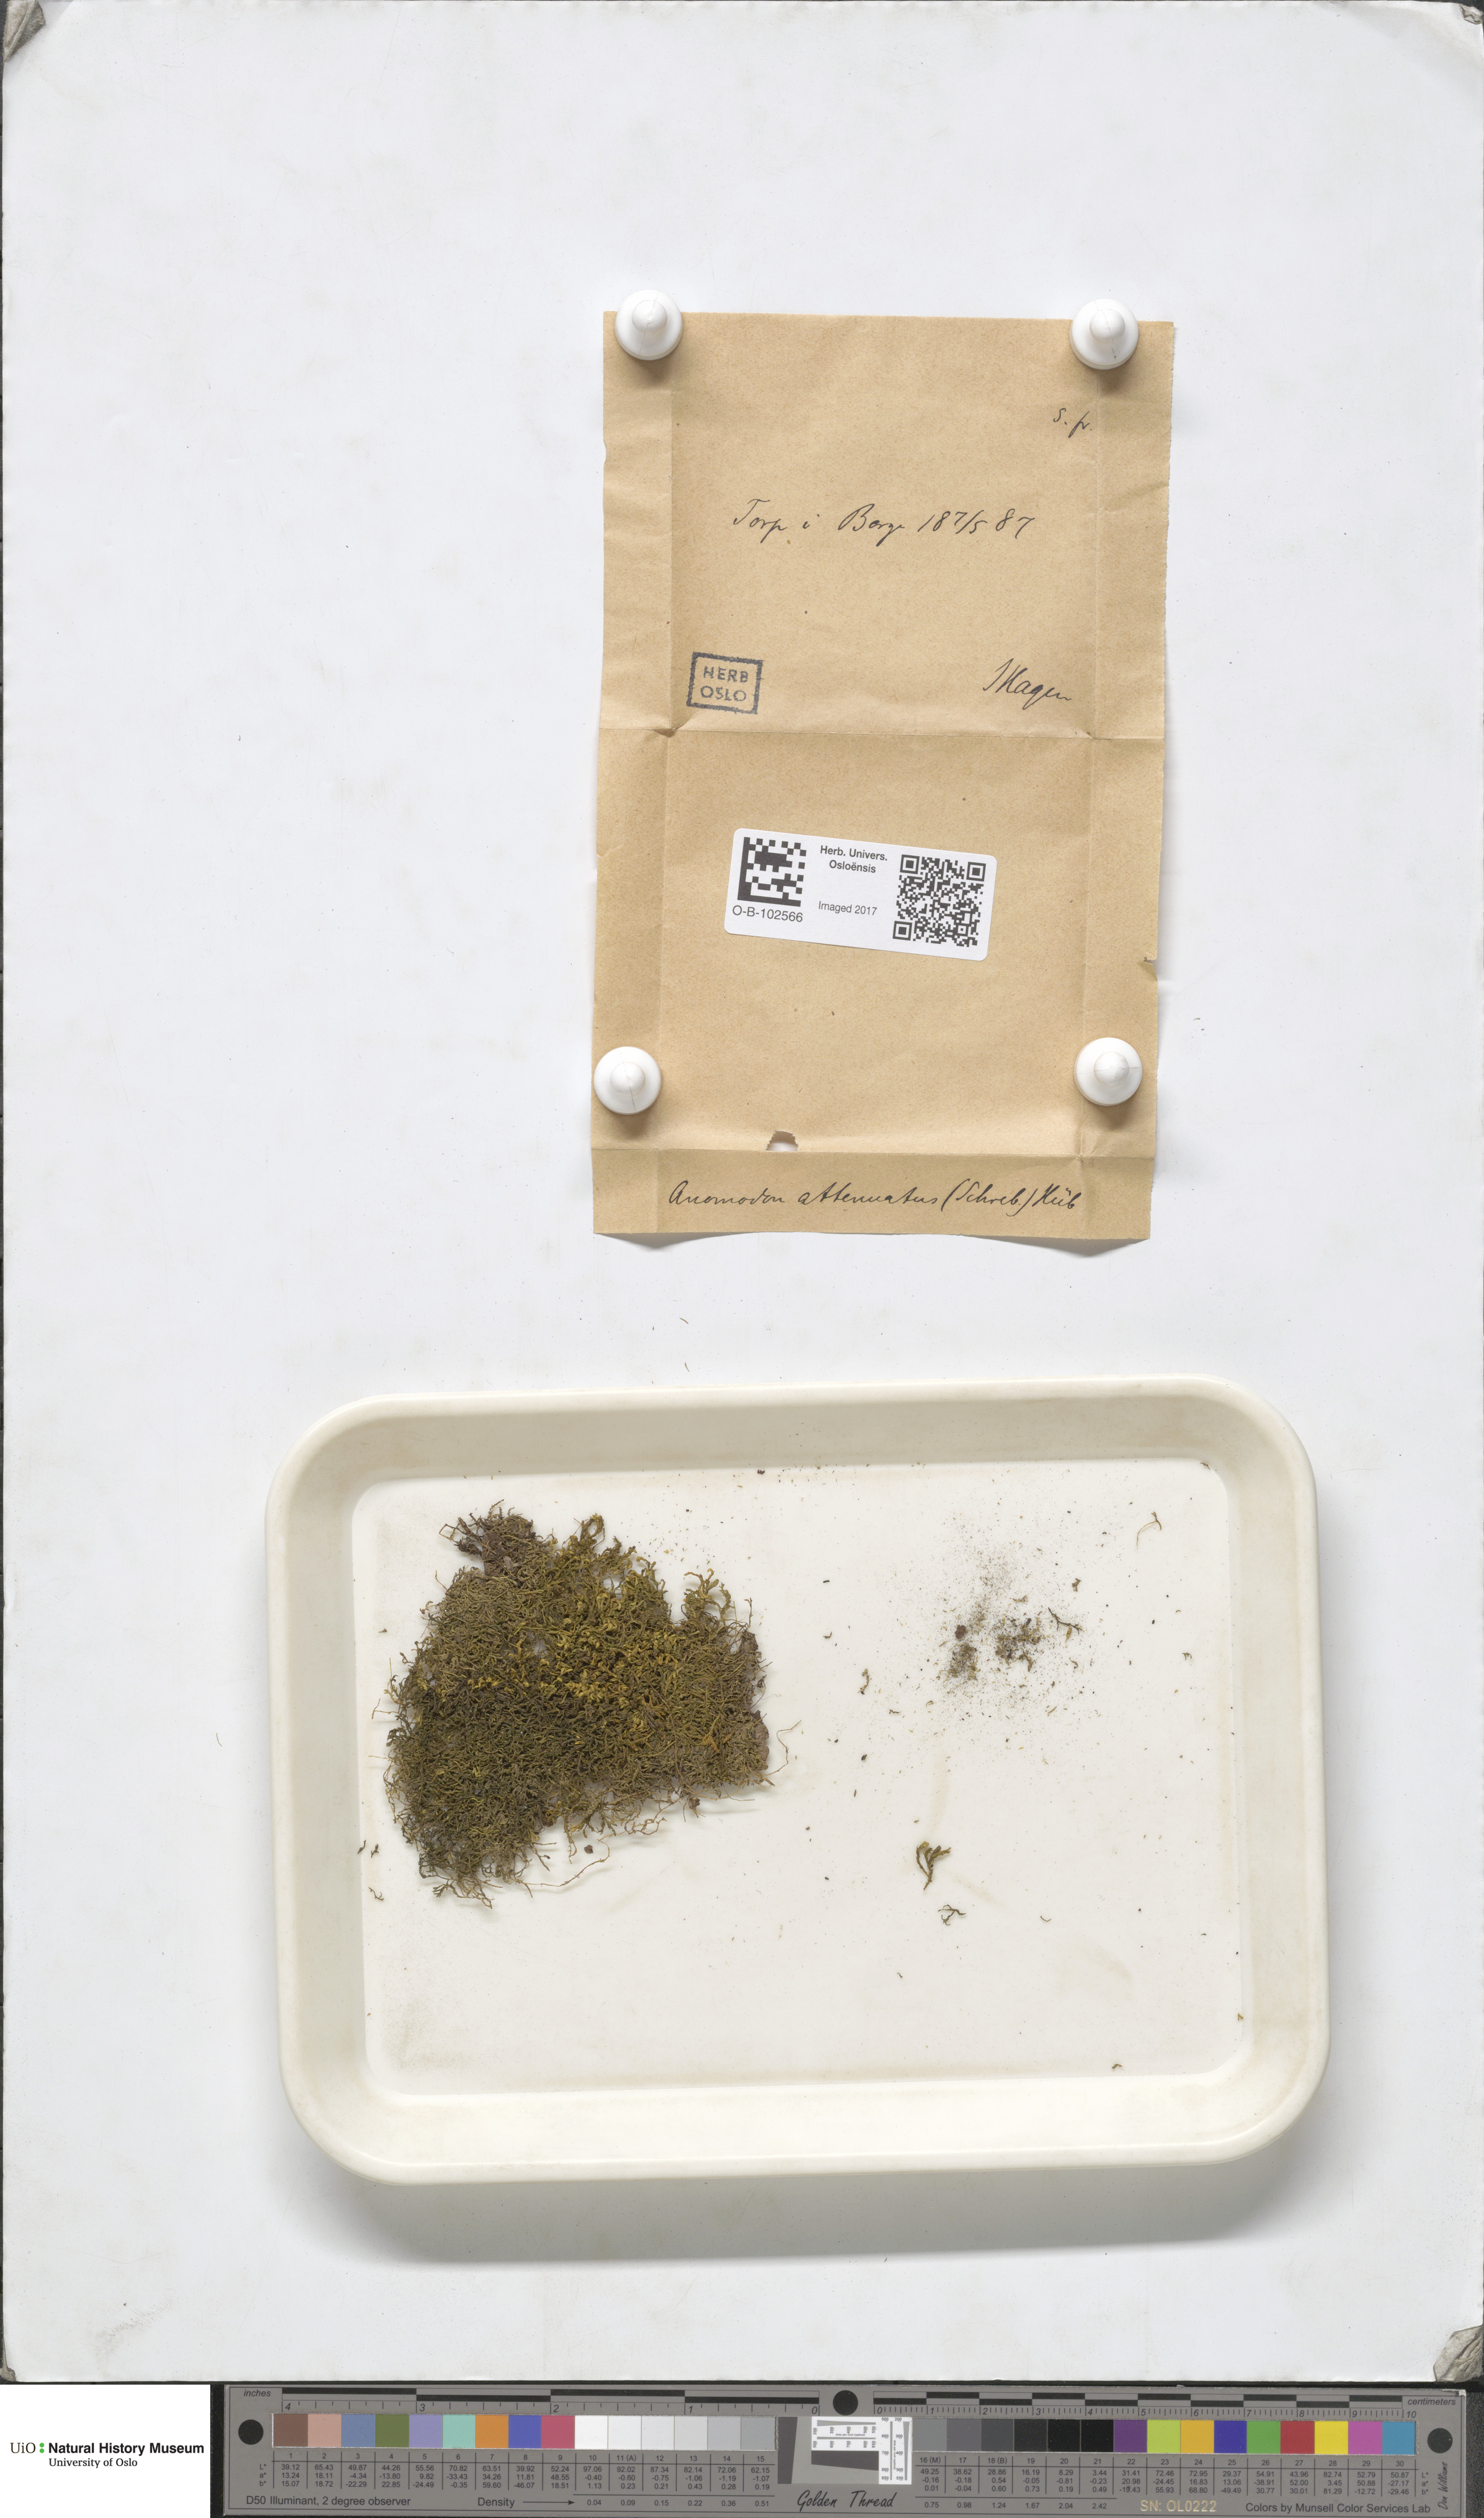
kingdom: Plantae
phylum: Bryophyta
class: Bryopsida
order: Bryales
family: Bryaceae
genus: Anomobryum
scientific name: Anomobryum
